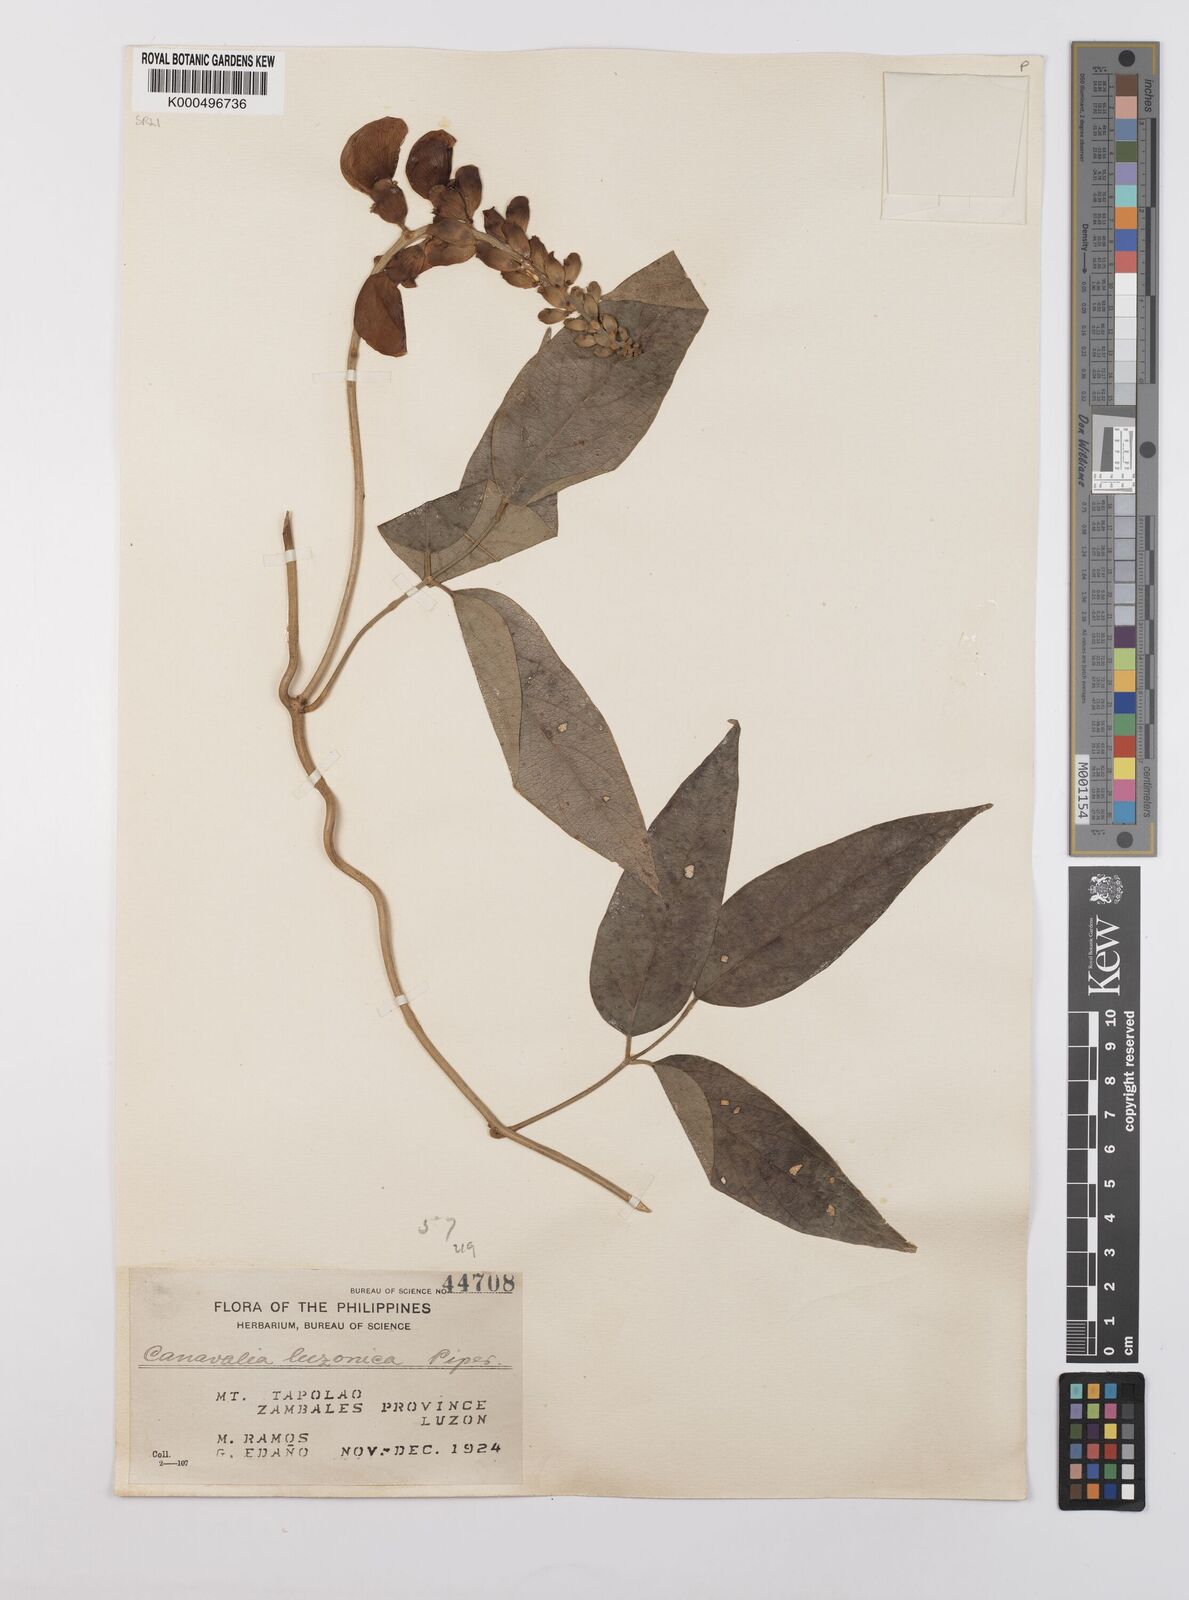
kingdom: Plantae
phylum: Tracheophyta
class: Magnoliopsida
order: Fabales
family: Fabaceae
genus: Canavalia
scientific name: Canavalia macrobotrys
